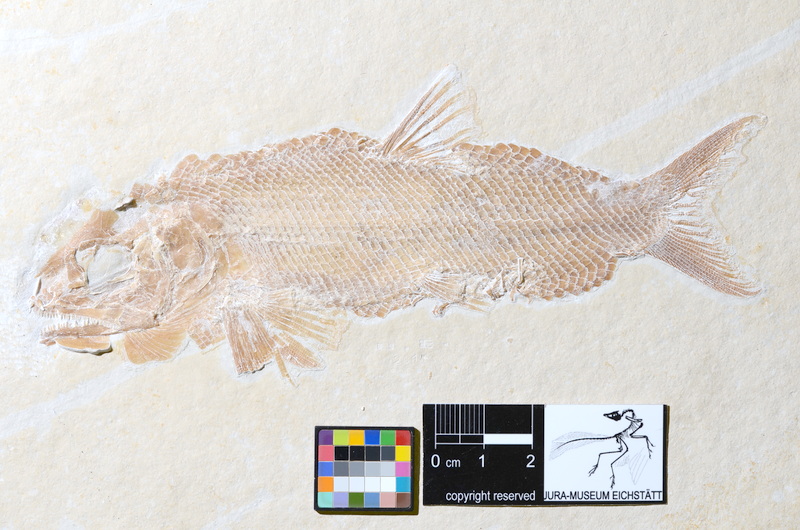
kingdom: Animalia
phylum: Chordata
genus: Schernfeldfuro
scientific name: Schernfeldfuro uweelleri
